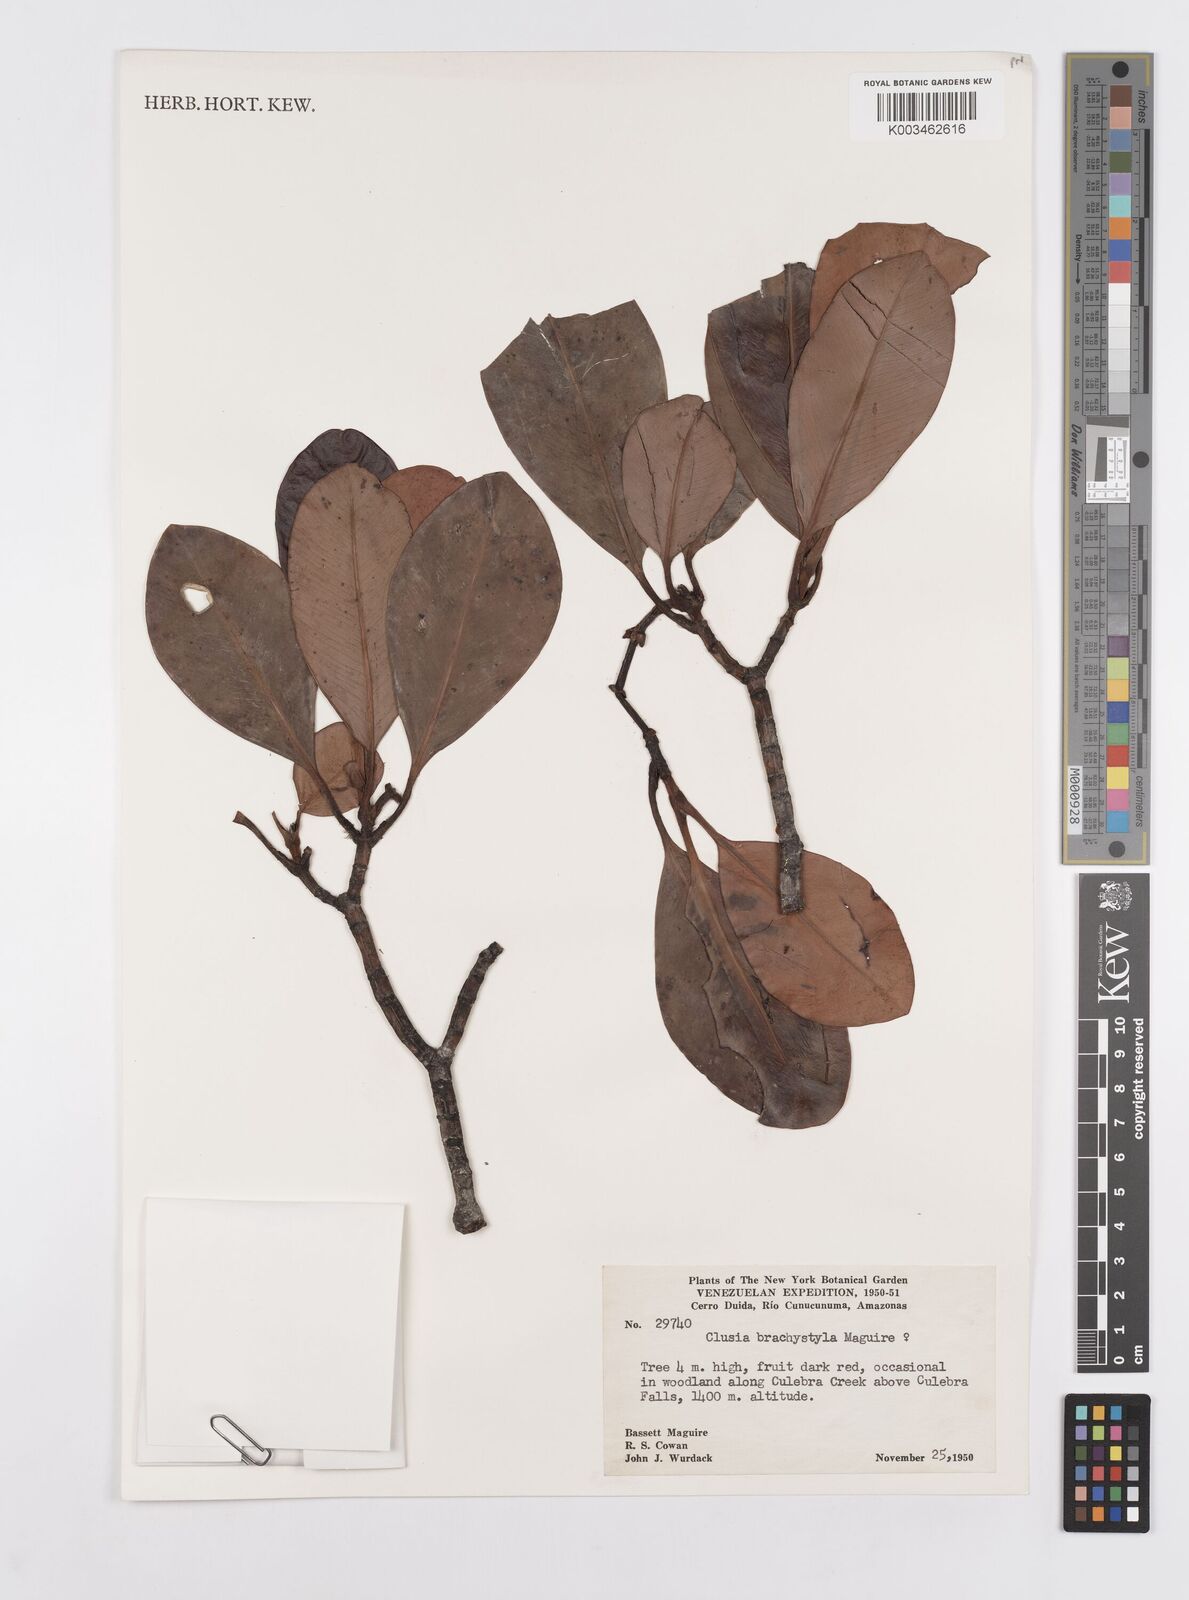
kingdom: Plantae
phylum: Tracheophyta
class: Magnoliopsida
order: Malpighiales
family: Clusiaceae
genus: Clusia
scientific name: Clusia brachystyla
